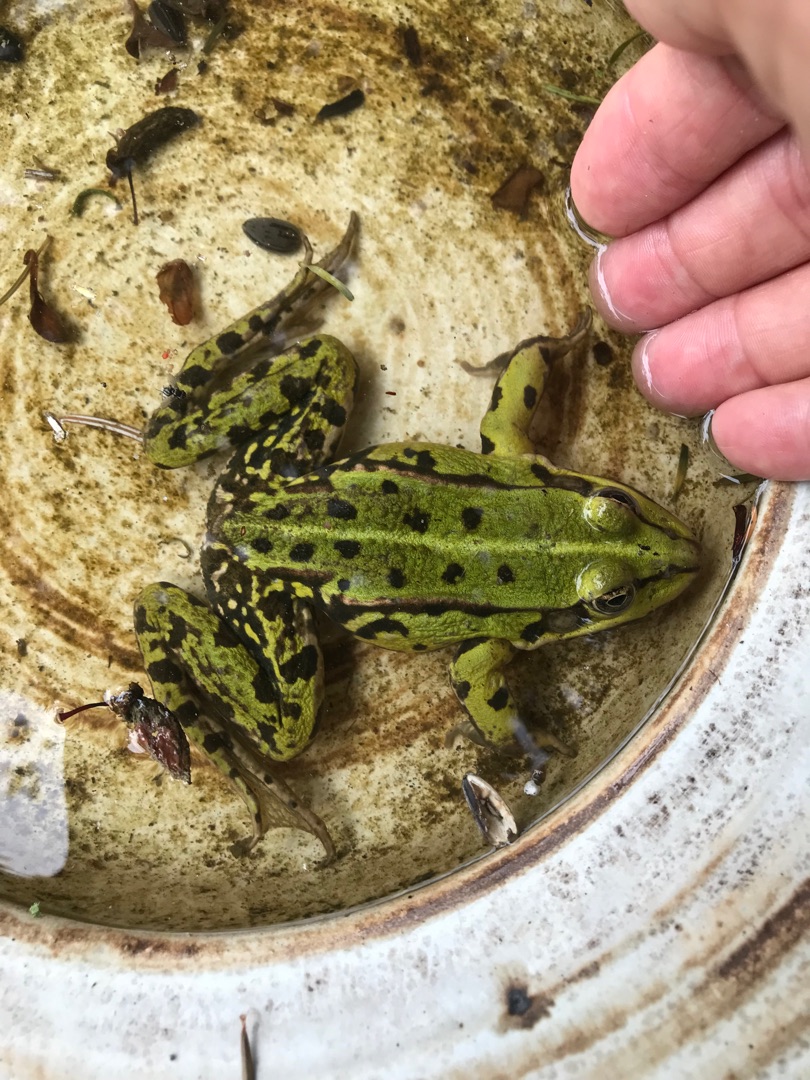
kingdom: Animalia
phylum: Chordata
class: Amphibia
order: Anura
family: Ranidae
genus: Pelophylax
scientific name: Pelophylax lessonae
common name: Grøn frø
